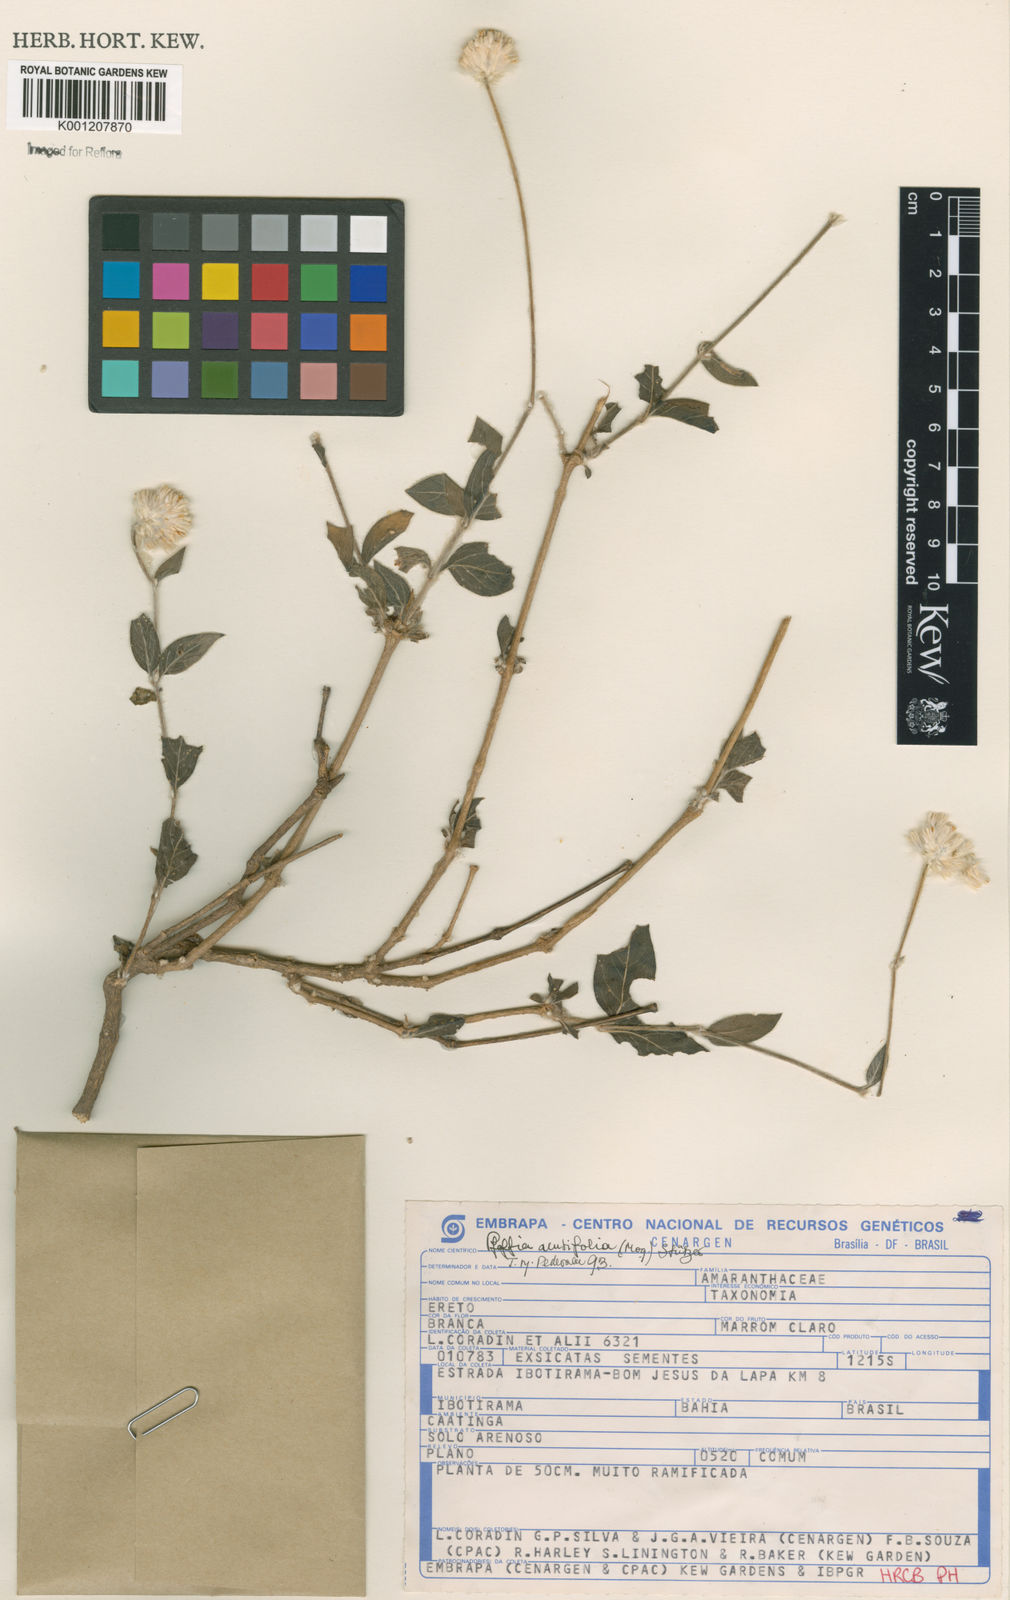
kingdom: Plantae
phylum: Tracheophyta
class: Magnoliopsida
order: Caryophyllales
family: Amaranthaceae
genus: Pfaffia
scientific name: Pfaffia
